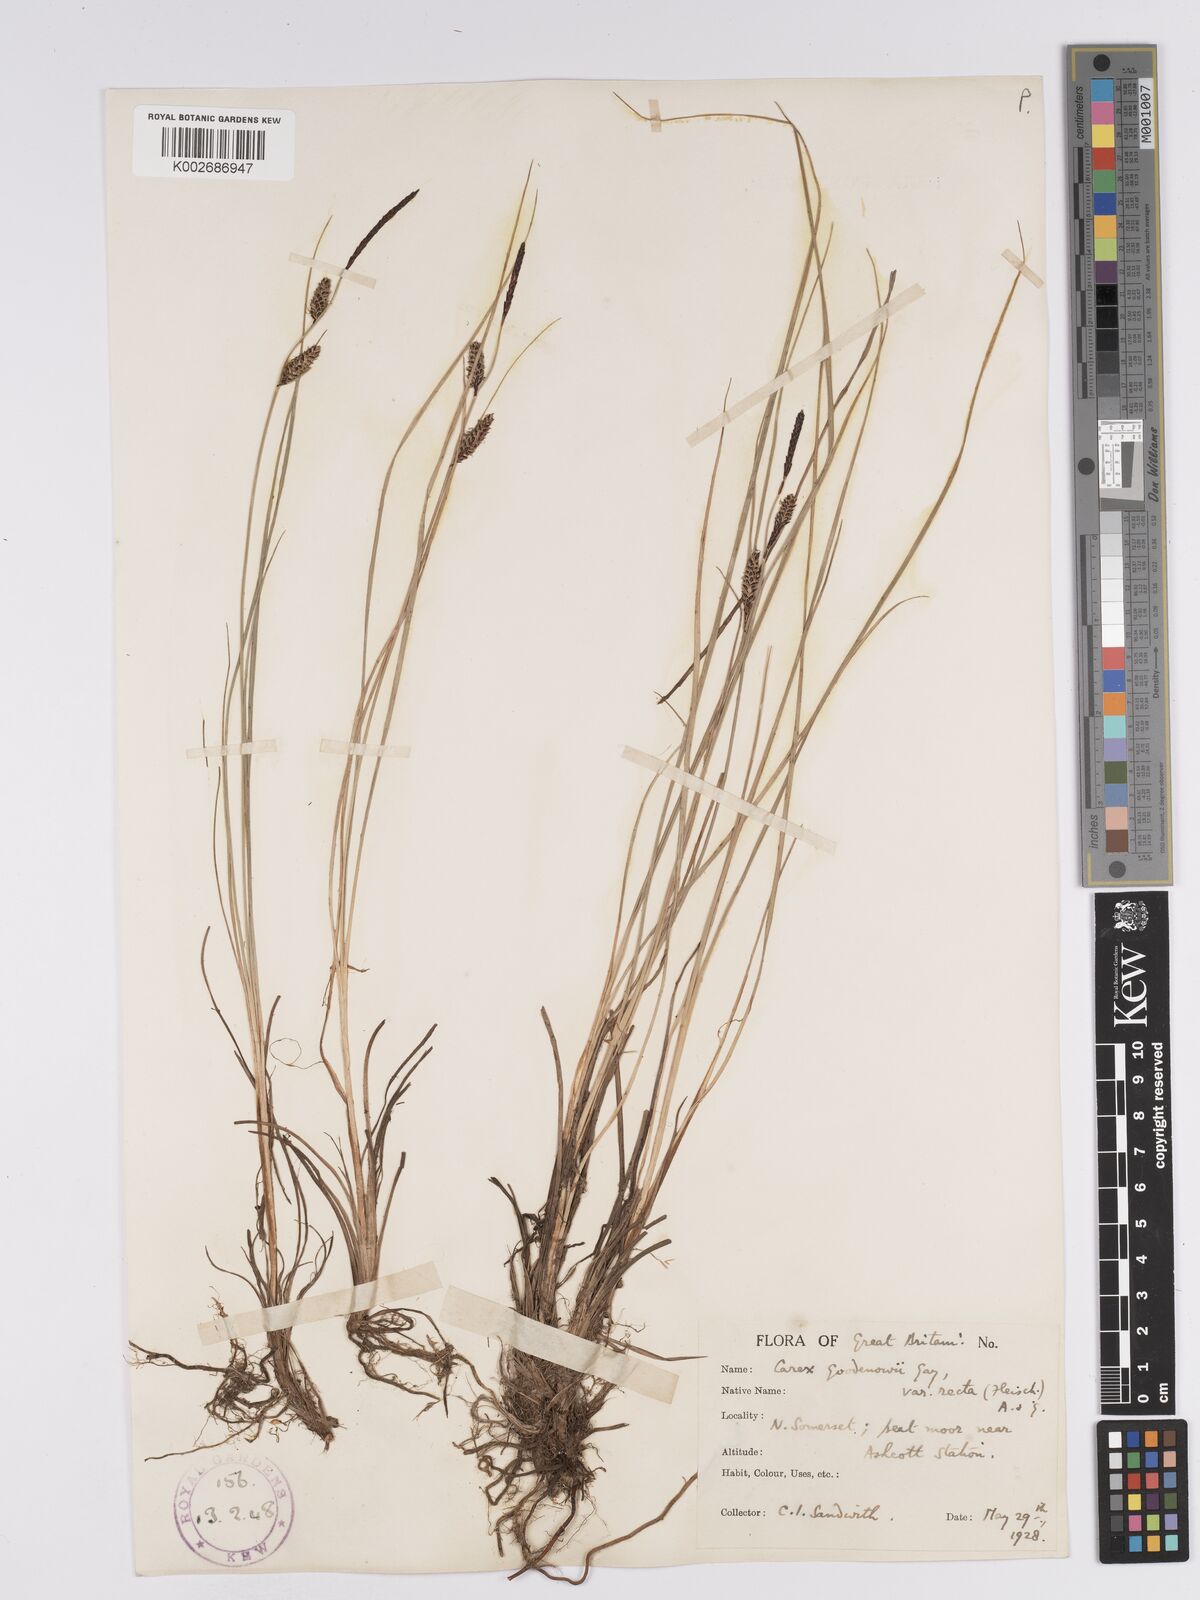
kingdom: Plantae
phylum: Tracheophyta
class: Liliopsida
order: Poales
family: Cyperaceae
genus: Carex
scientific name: Carex nigra
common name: Common sedge
